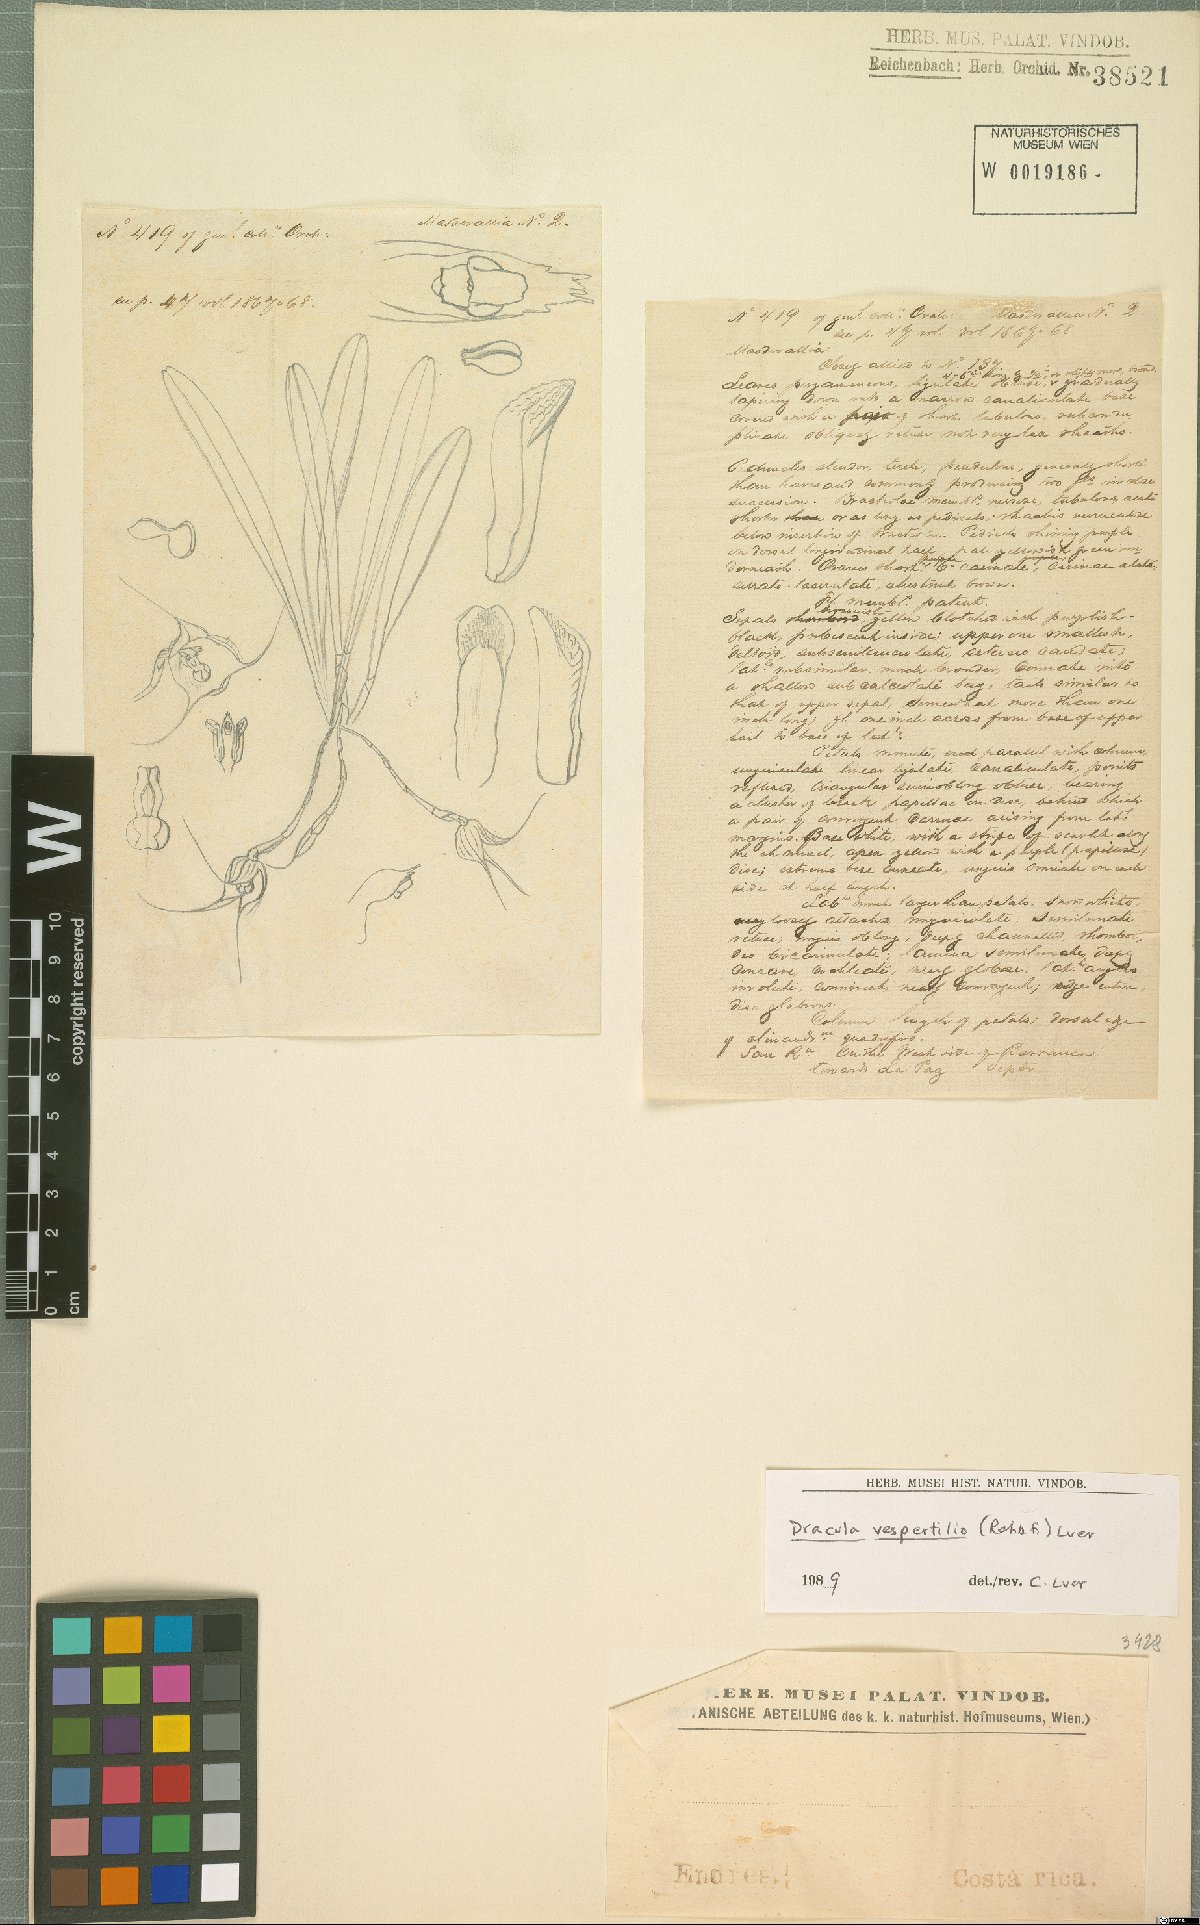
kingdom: Plantae
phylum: Tracheophyta
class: Liliopsida
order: Asparagales
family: Orchidaceae
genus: Dracula
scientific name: Dracula vespertilio
